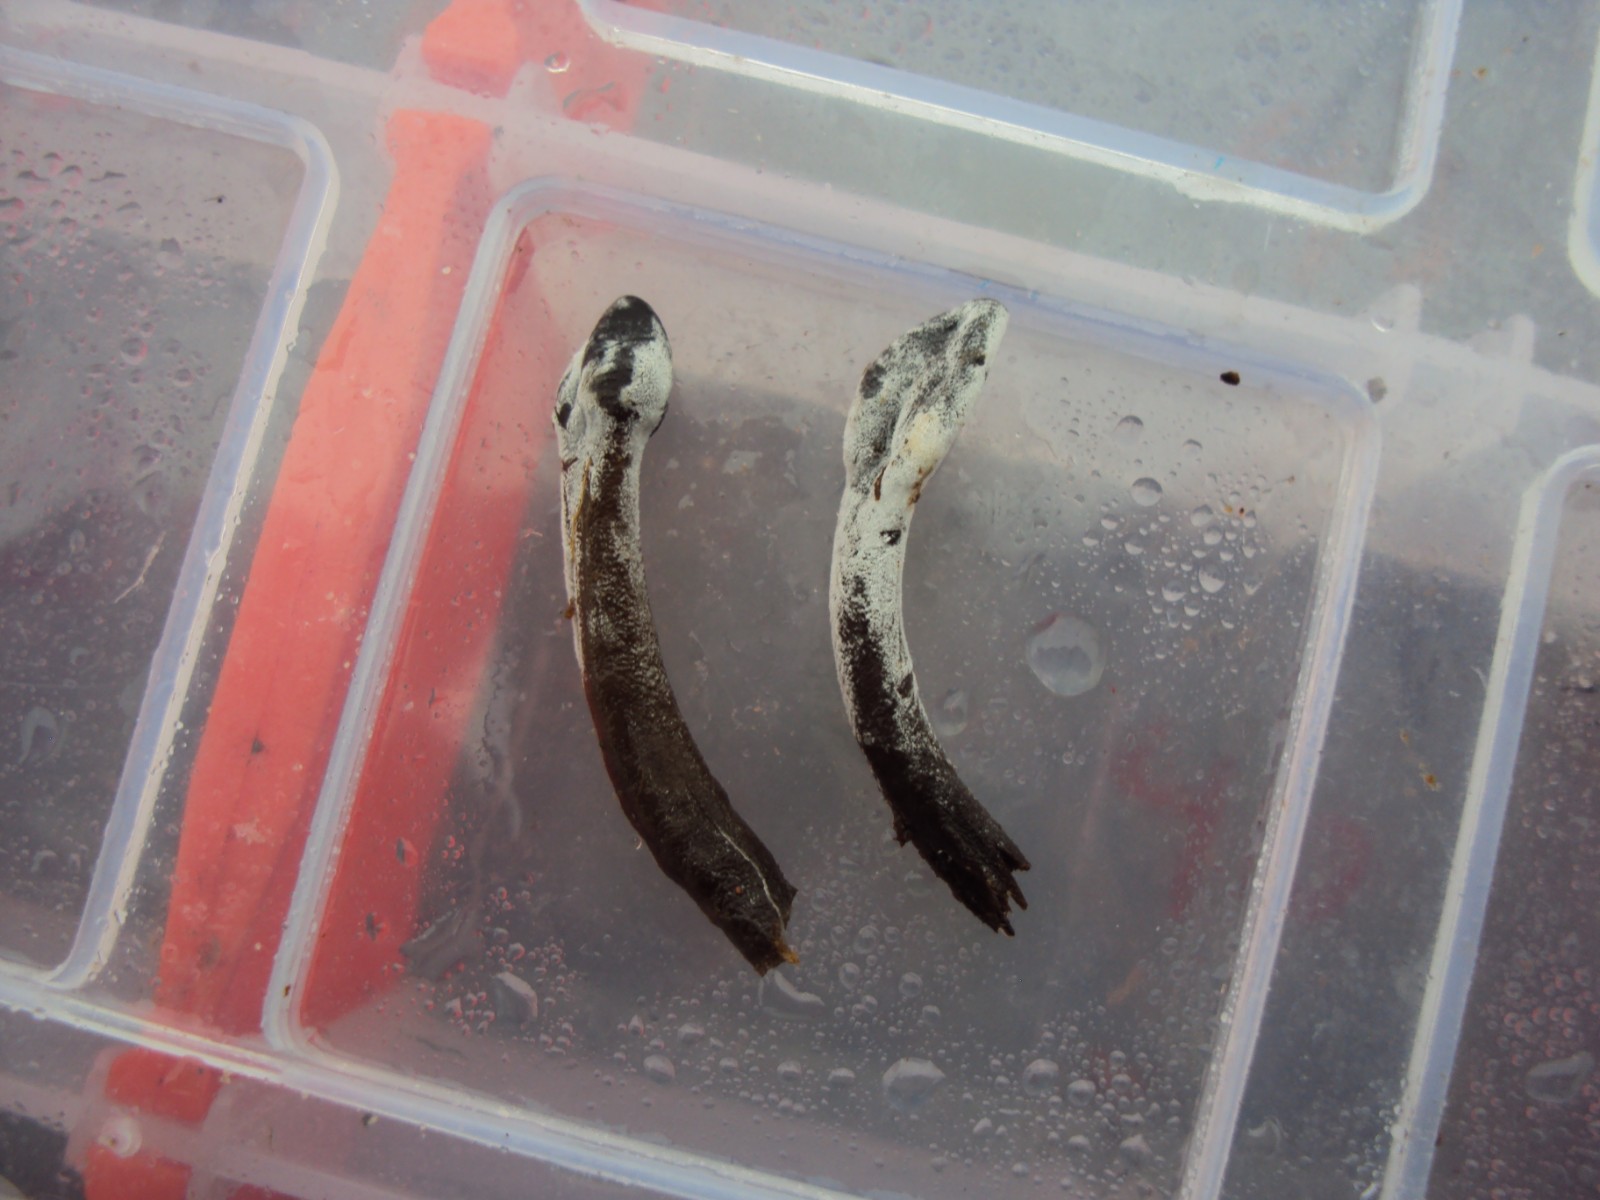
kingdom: Fungi
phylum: Ascomycota
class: Sordariomycetes
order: Hypocreales
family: Hypocreaceae
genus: Hypomyces
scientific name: Hypomyces papulasporae
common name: jordtunge-snylteskorpe
